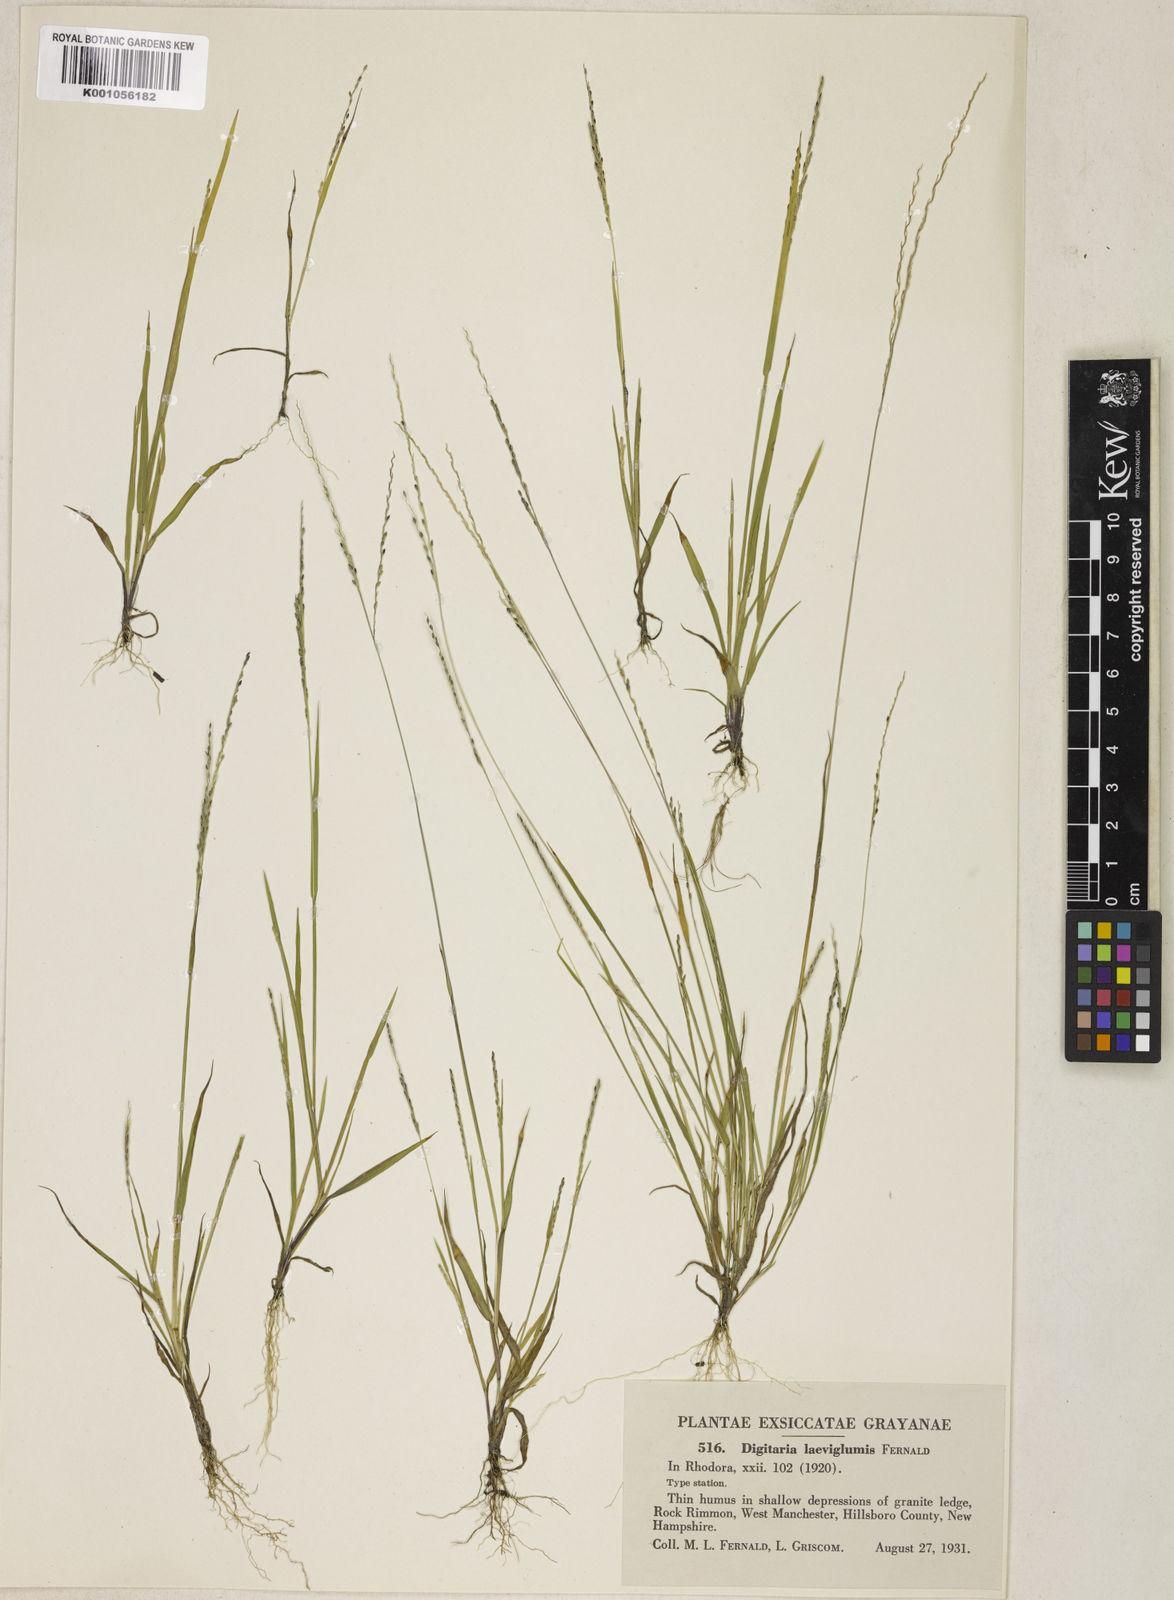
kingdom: Plantae
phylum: Tracheophyta
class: Liliopsida
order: Poales
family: Poaceae
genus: Digitaria
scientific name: Digitaria filiformis
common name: Slender crabgrass
